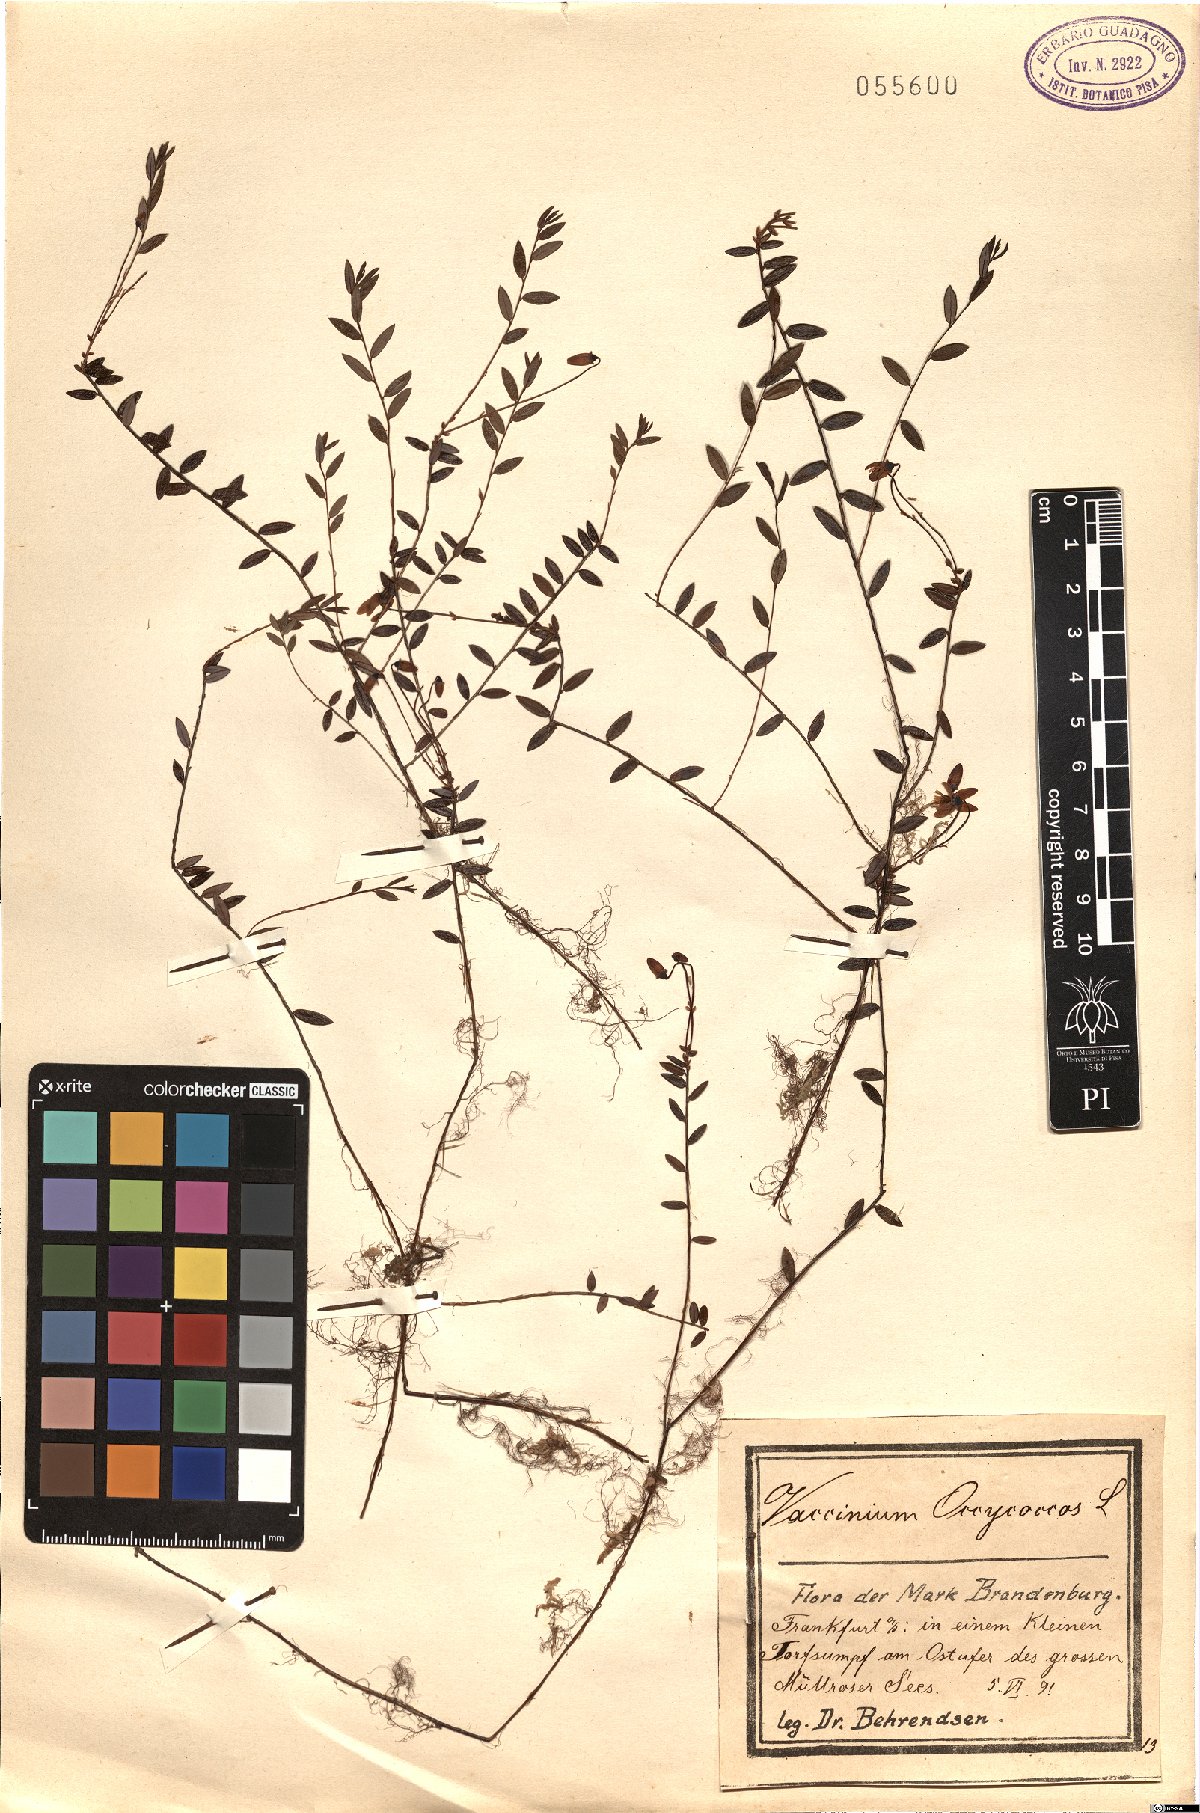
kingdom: Plantae
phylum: Tracheophyta
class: Magnoliopsida
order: Ericales
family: Ericaceae
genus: Vaccinium
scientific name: Vaccinium oxycoccos
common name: Cranberry
